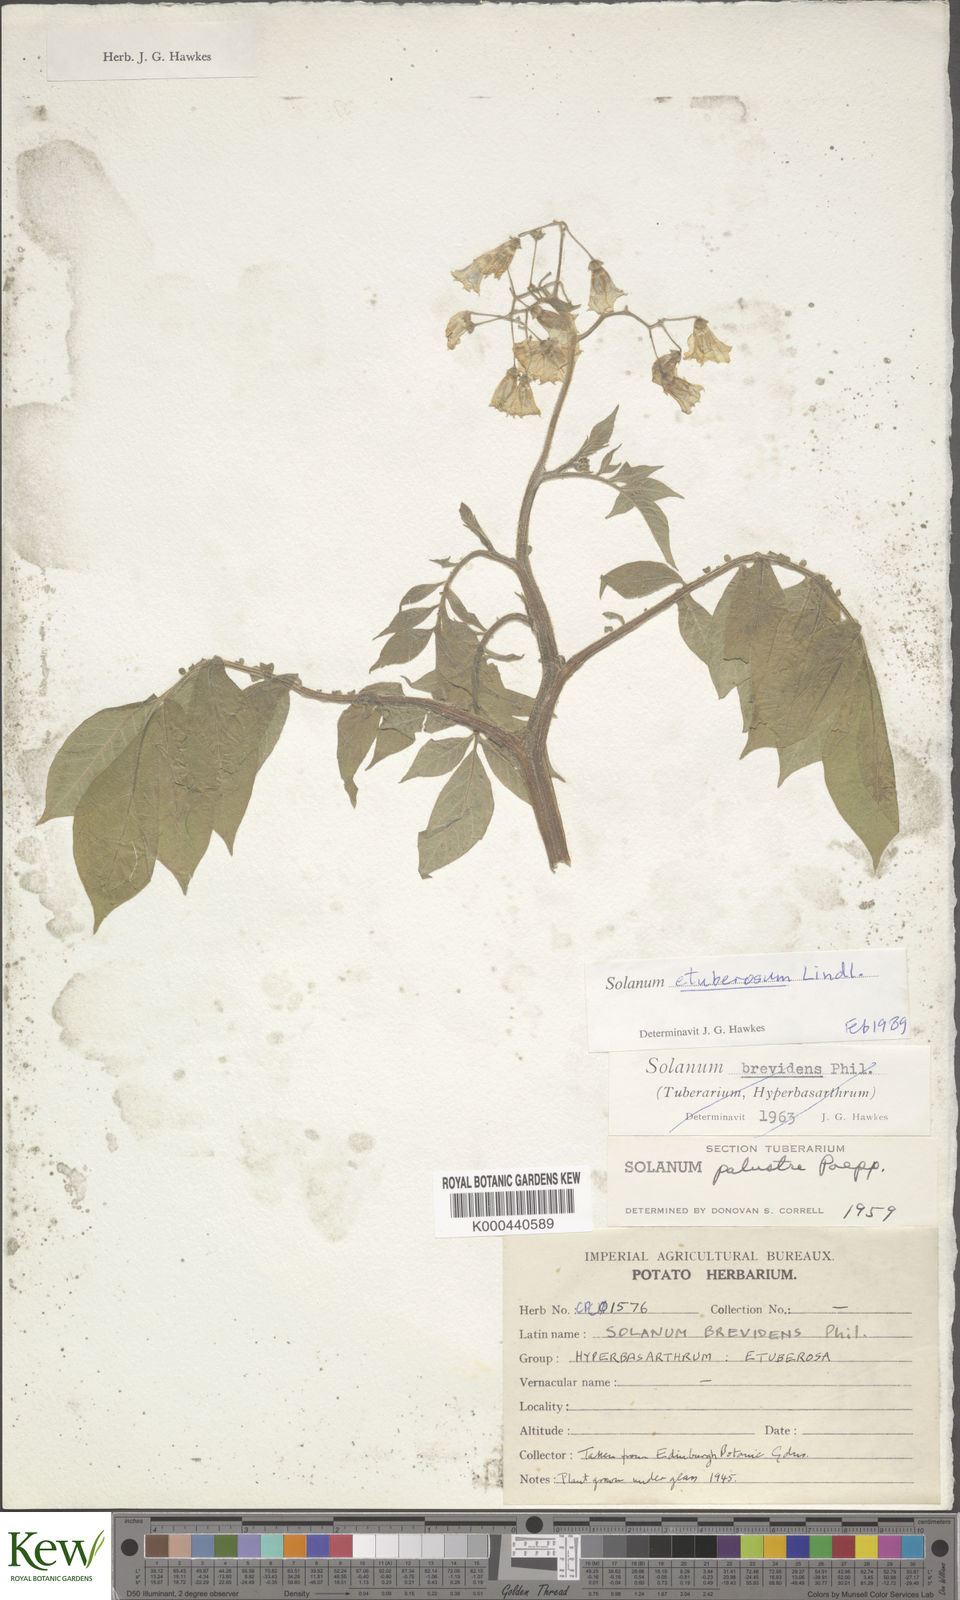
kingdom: Plantae
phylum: Tracheophyta
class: Magnoliopsida
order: Solanales
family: Solanaceae
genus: Solanum
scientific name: Solanum etuberosum
